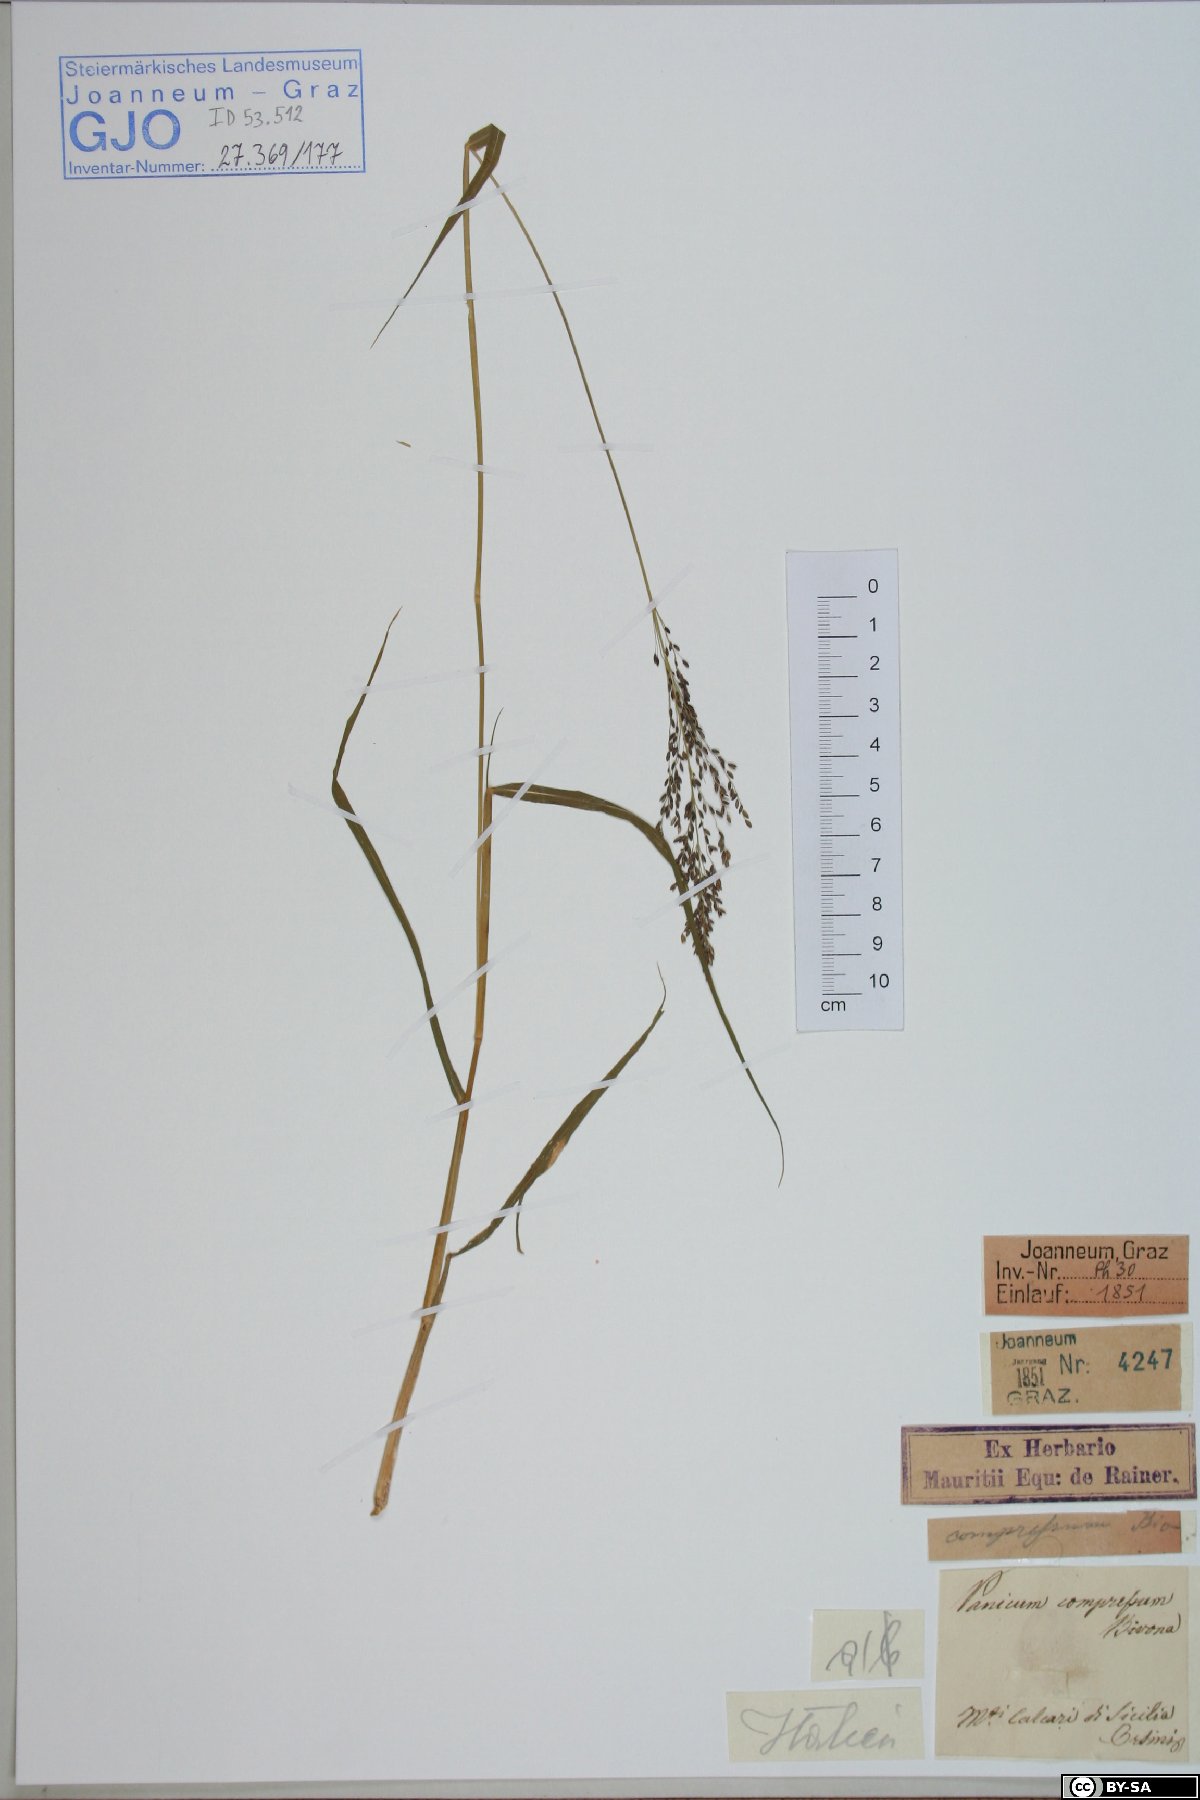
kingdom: Plantae
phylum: Tracheophyta
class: Liliopsida
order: Poales
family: Poaceae
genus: Megathyrsus
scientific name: Megathyrsus maximus
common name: Guineagrass
